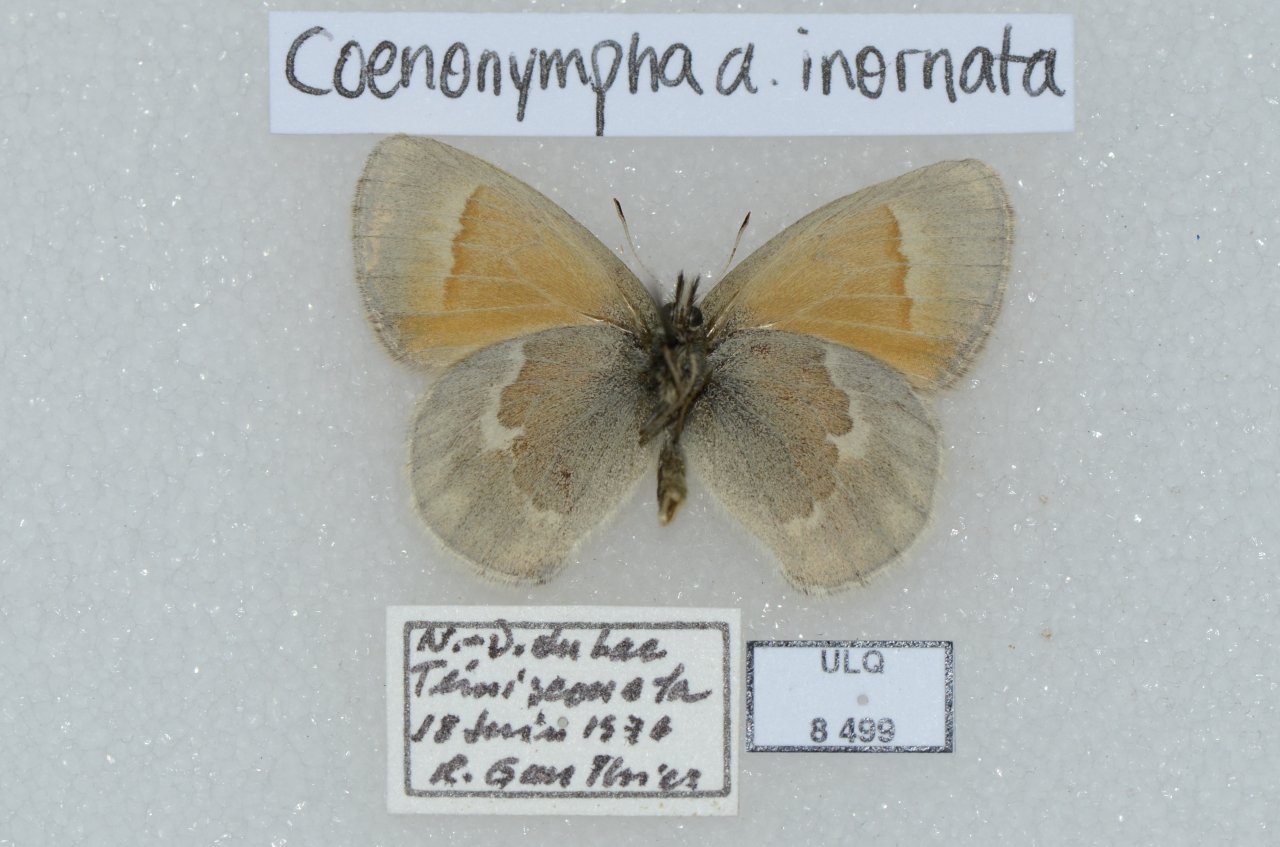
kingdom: Animalia
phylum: Arthropoda
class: Insecta
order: Lepidoptera
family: Nymphalidae
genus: Coenonympha
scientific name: Coenonympha tullia
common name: Large Heath
